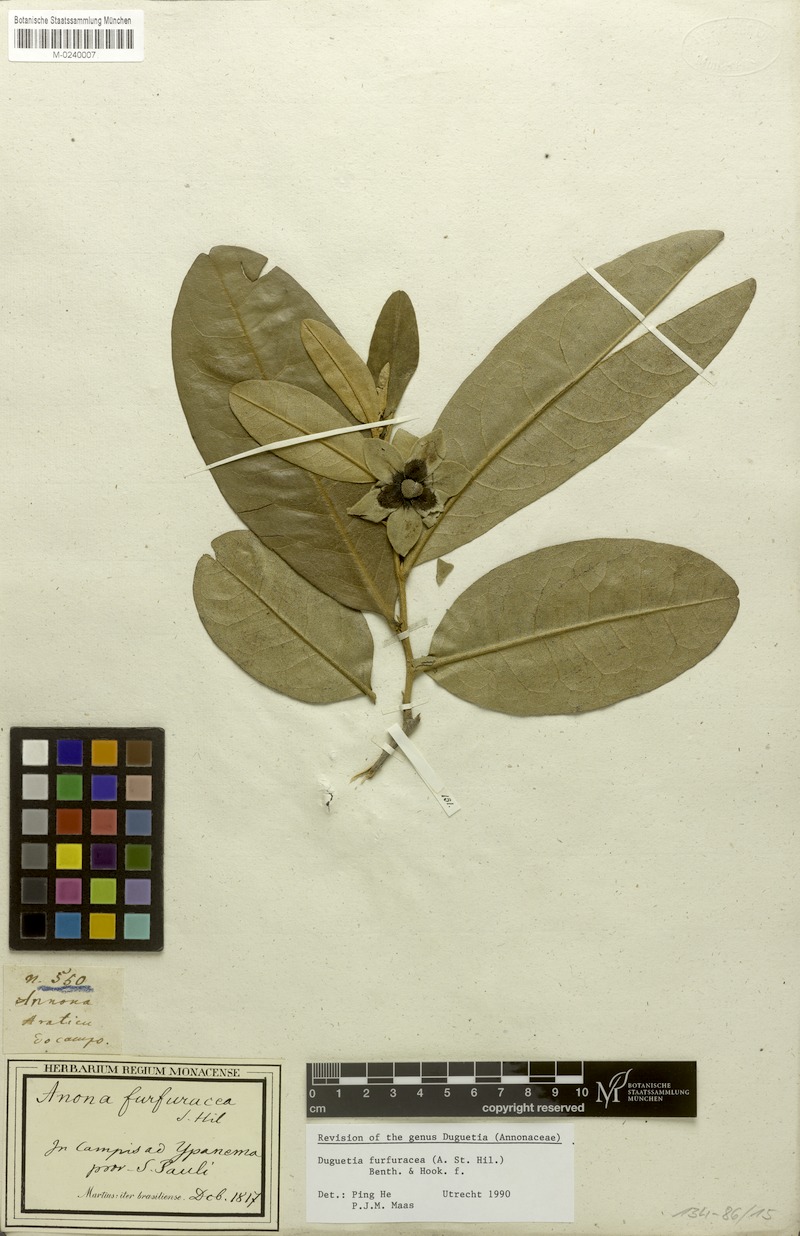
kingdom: Plantae
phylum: Tracheophyta
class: Magnoliopsida
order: Magnoliales
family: Annonaceae
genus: Duguetia
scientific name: Duguetia furfuracea
